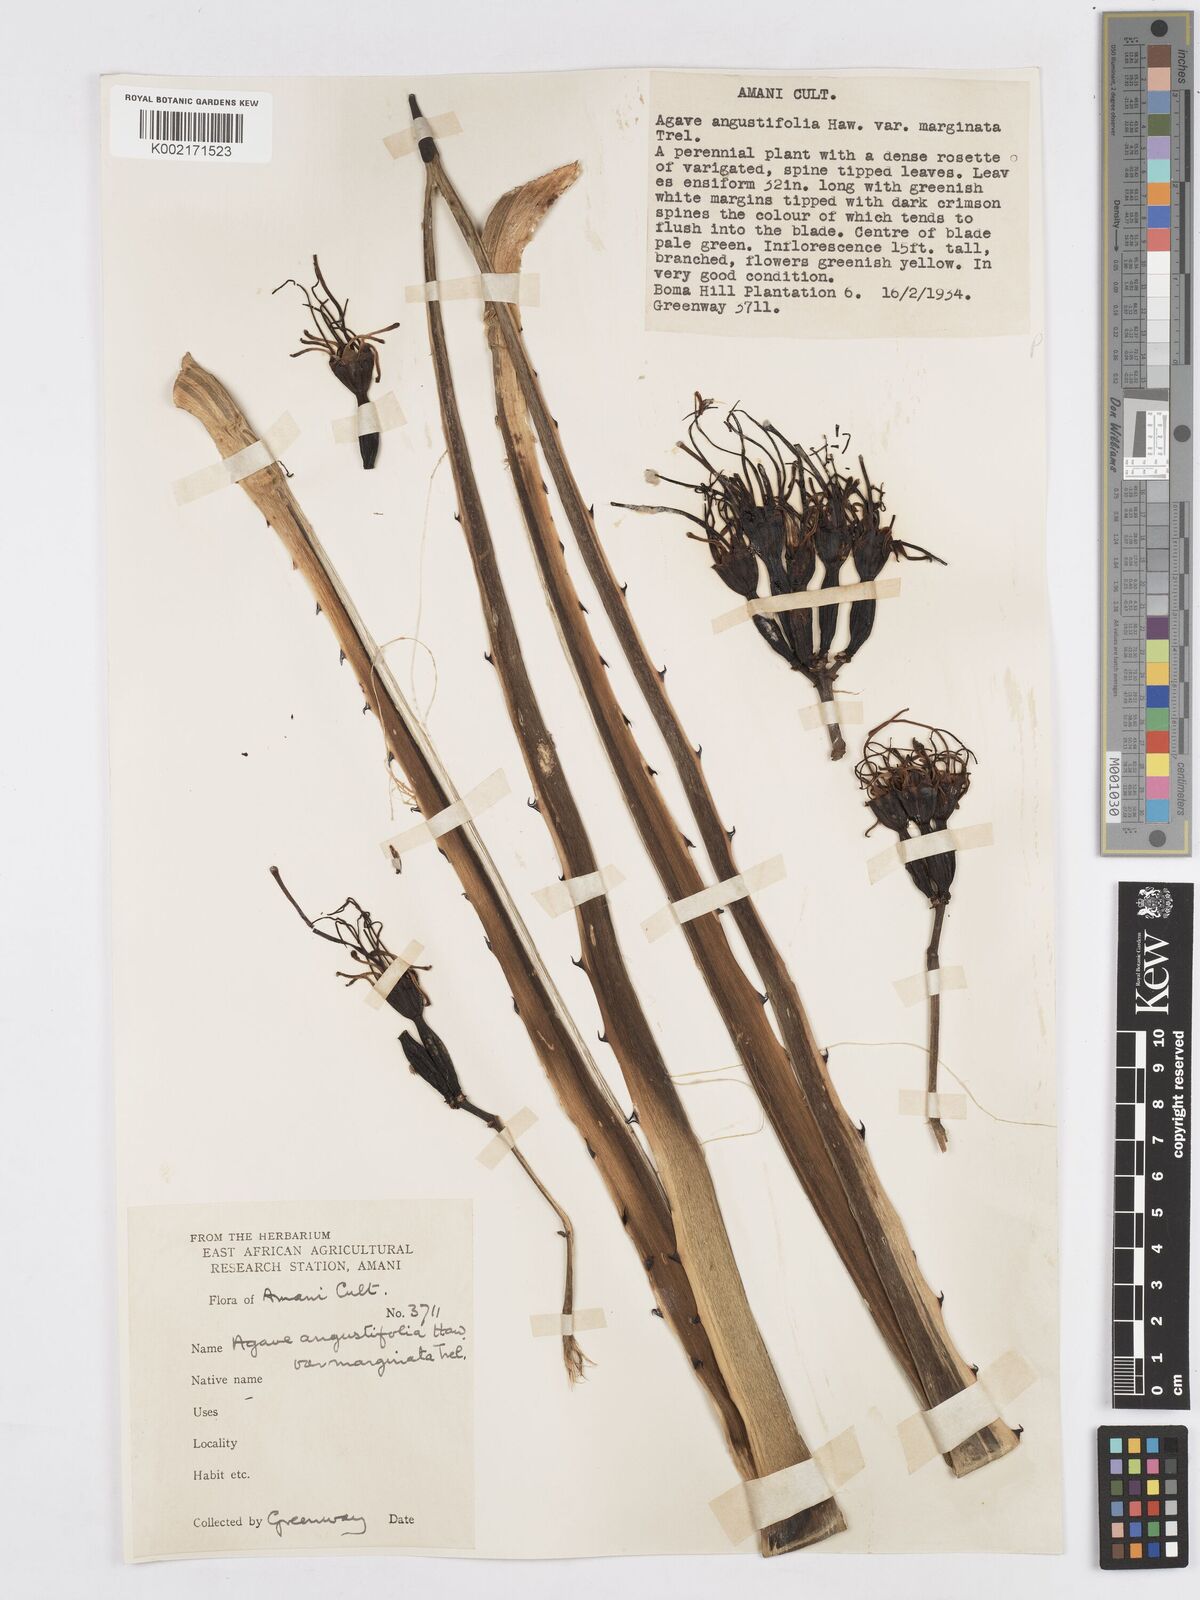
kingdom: Plantae
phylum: Tracheophyta
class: Liliopsida
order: Asparagales
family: Asparagaceae
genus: Agave
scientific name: Agave angustifolia
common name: Mescal agave
